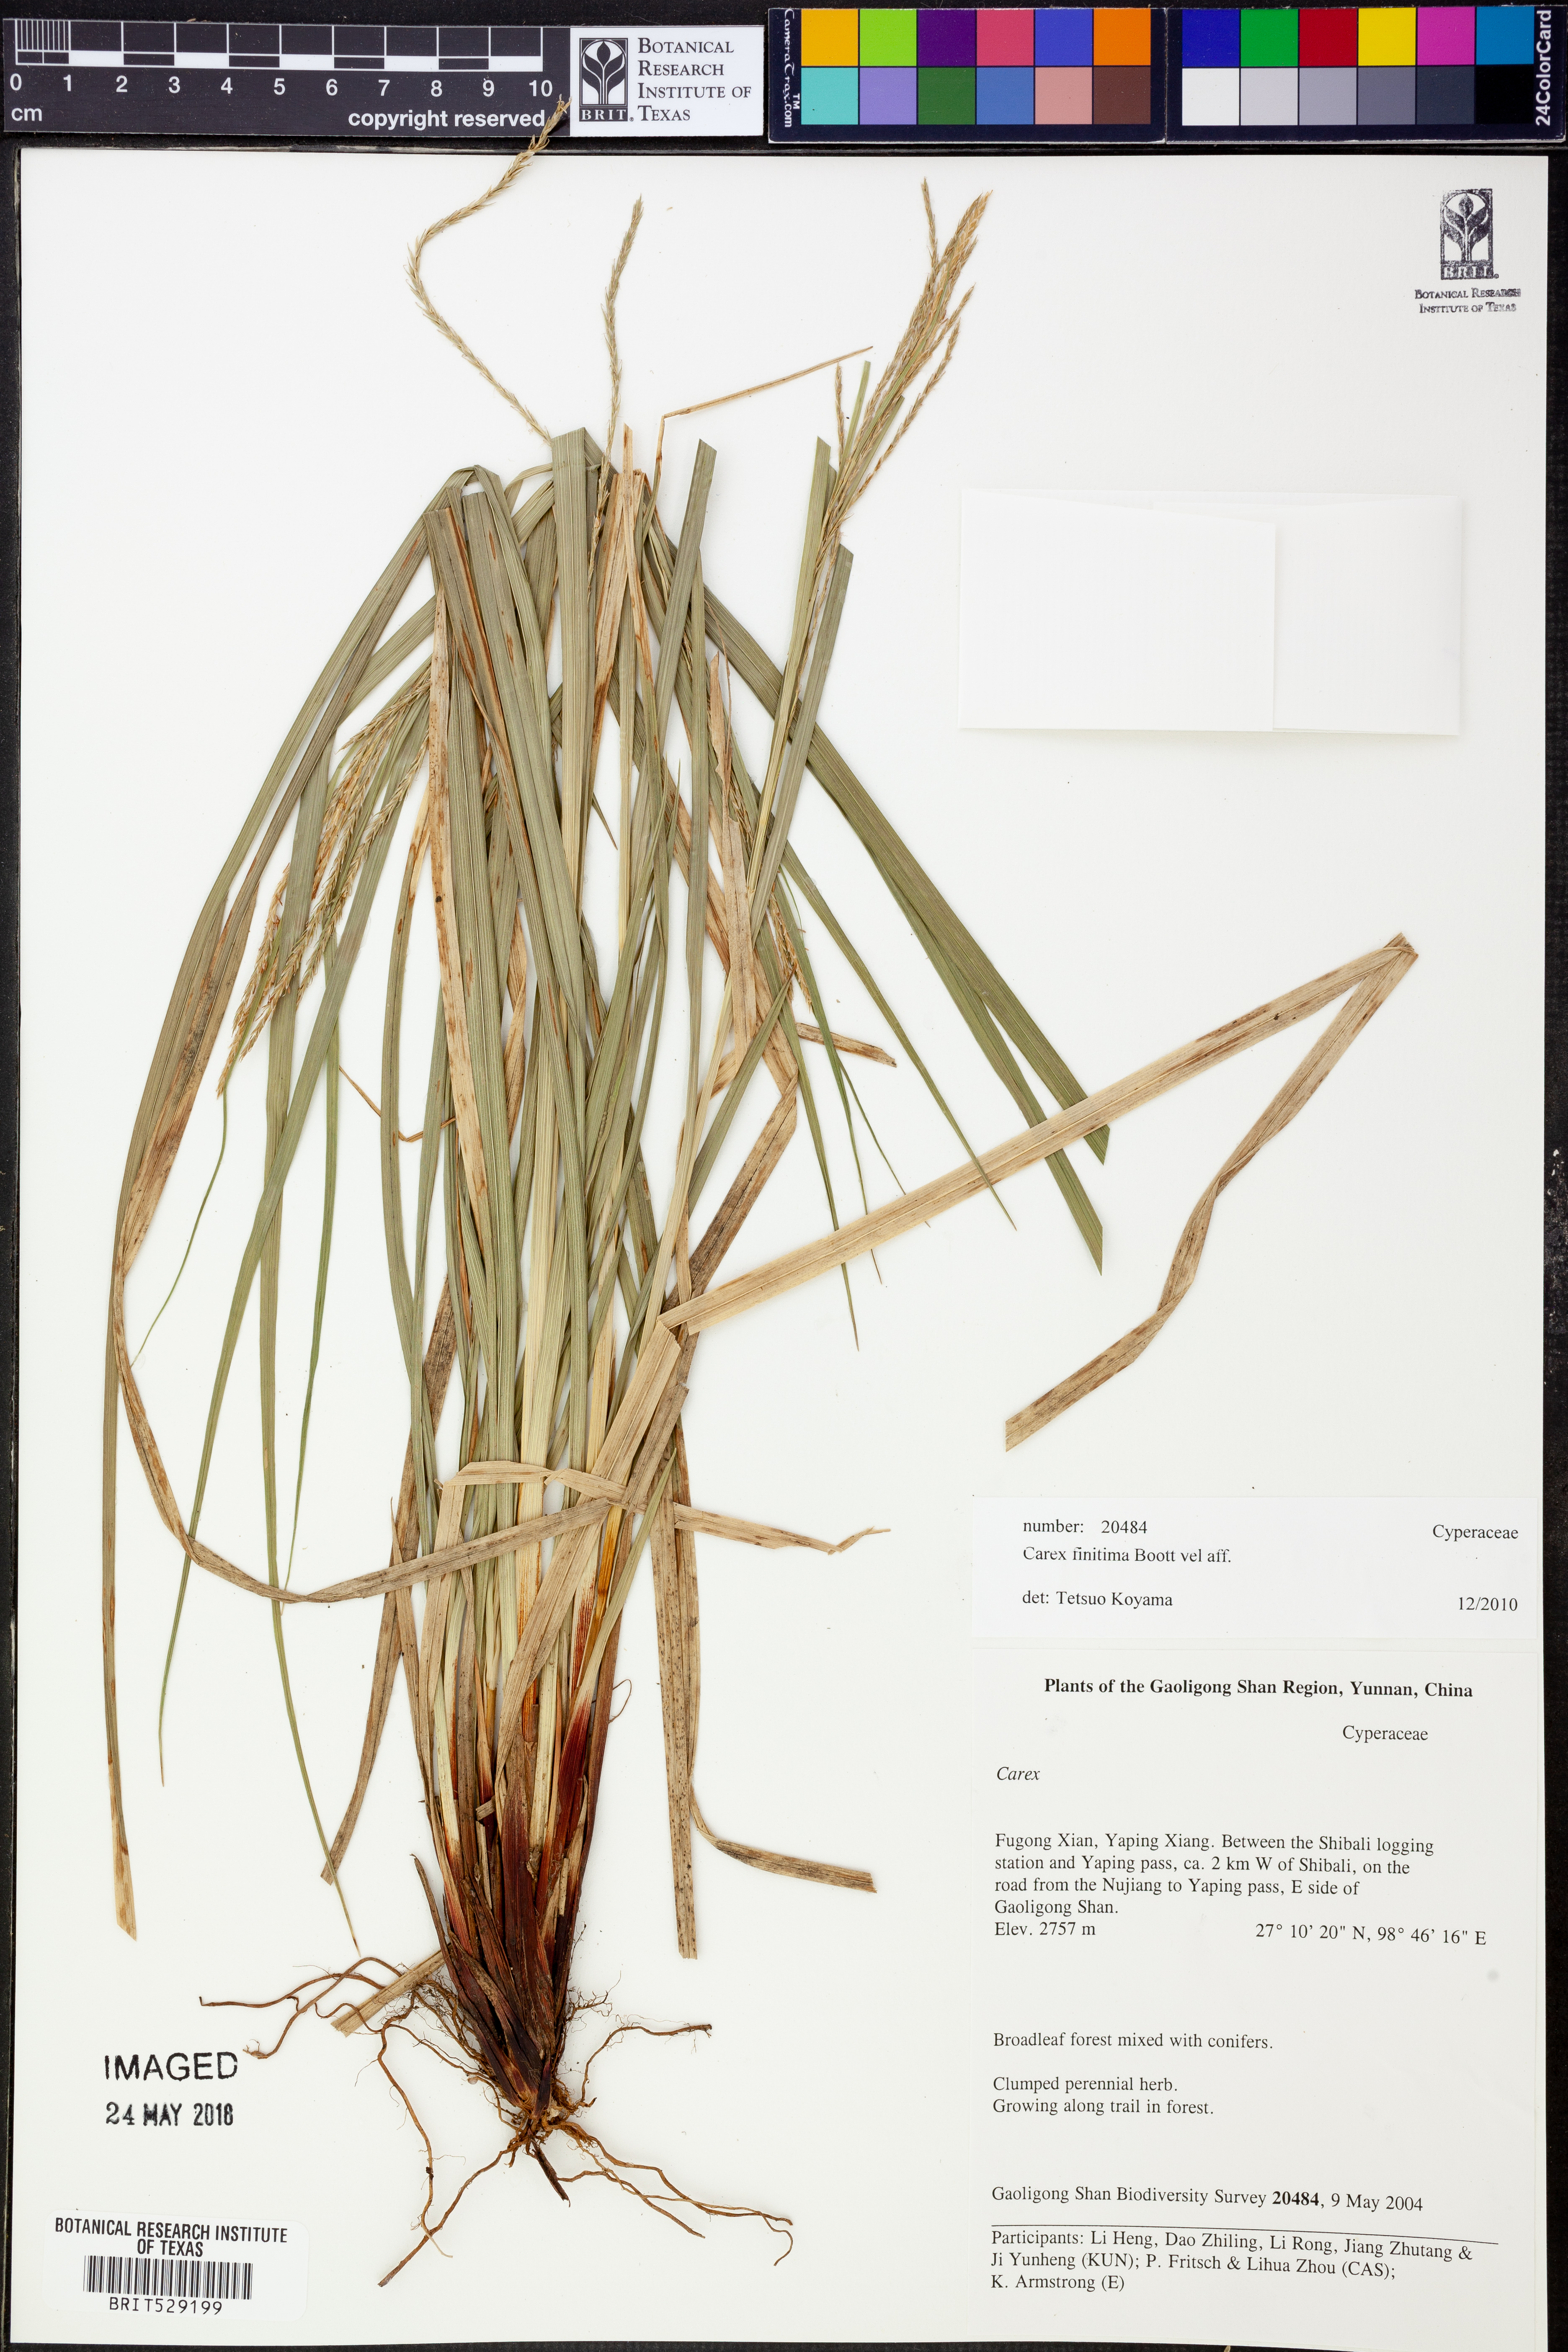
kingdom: Plantae
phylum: Tracheophyta
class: Liliopsida
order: Poales
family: Cyperaceae
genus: Carex
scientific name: Carex finitima
